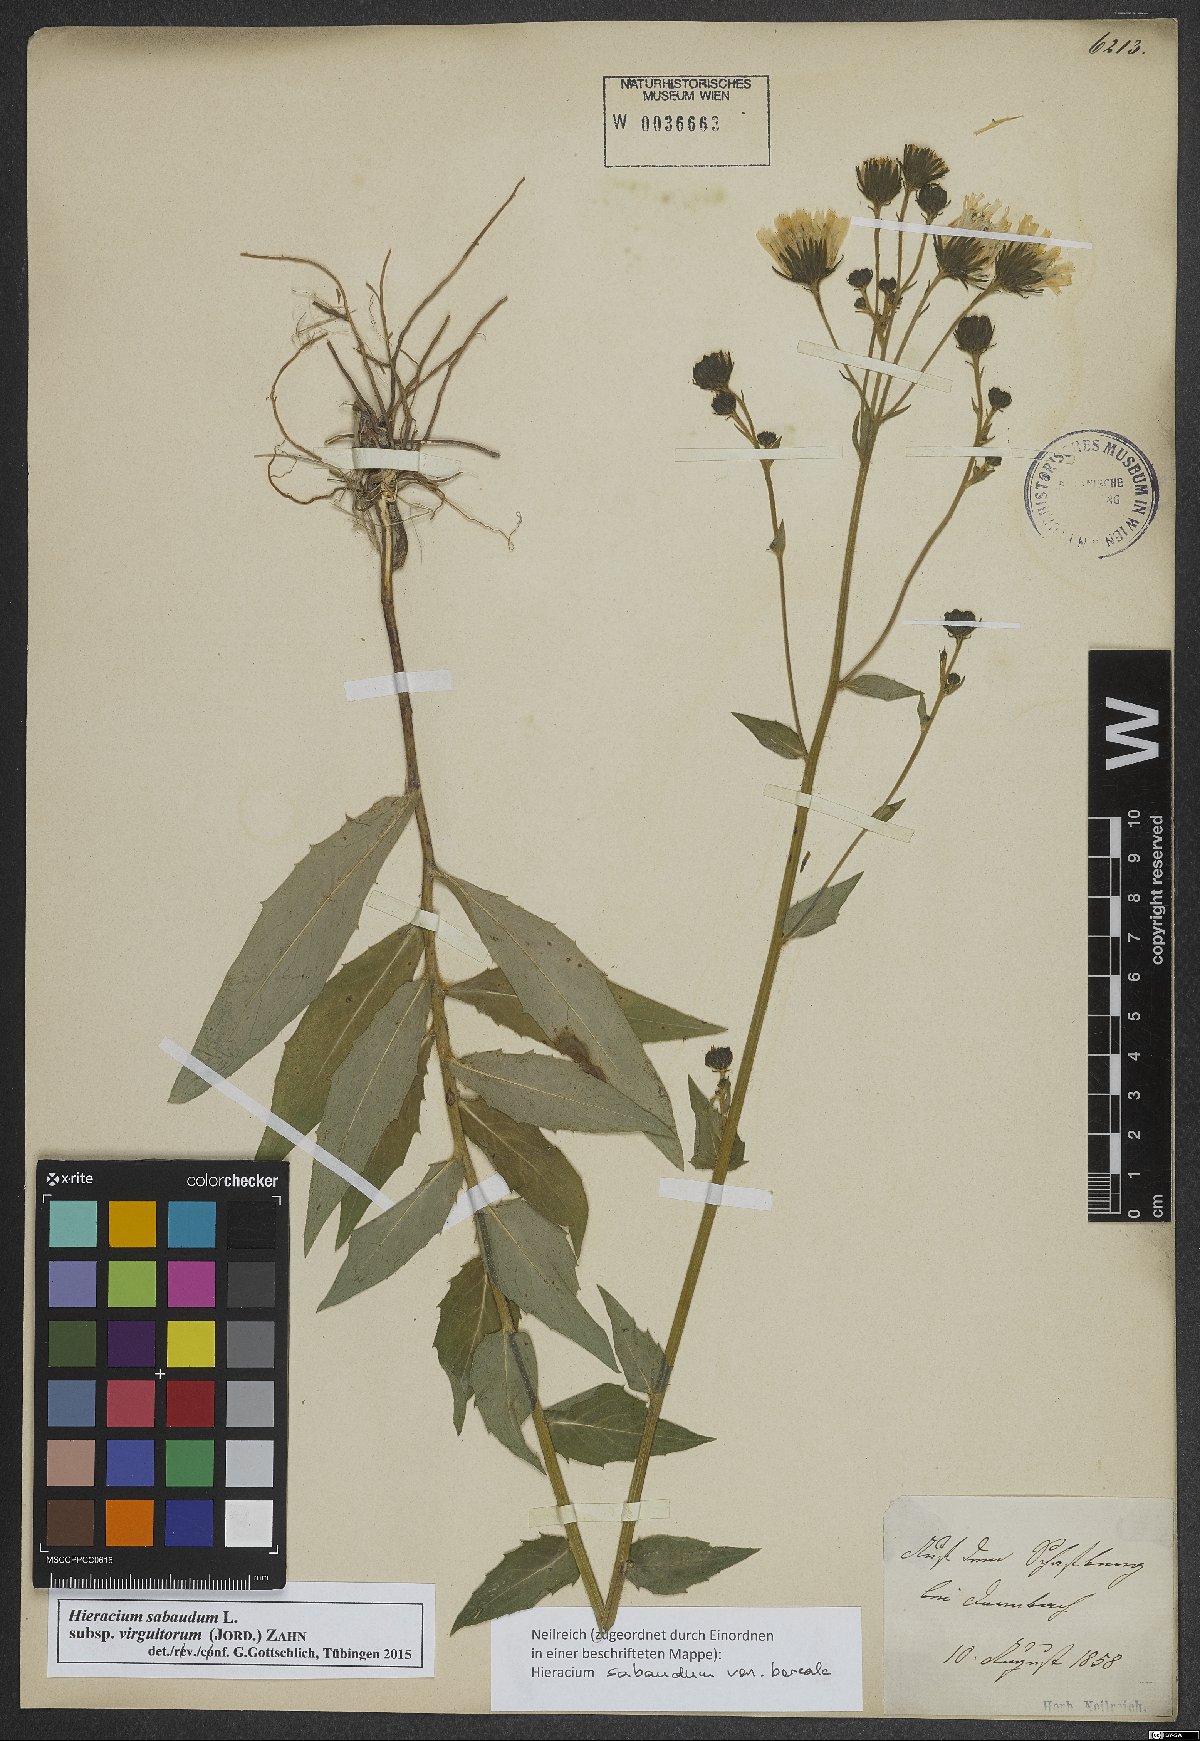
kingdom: Plantae
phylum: Tracheophyta
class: Magnoliopsida
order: Asterales
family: Asteraceae
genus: Hieracium
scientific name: Hieracium sabaudum
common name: New england hawkweed
